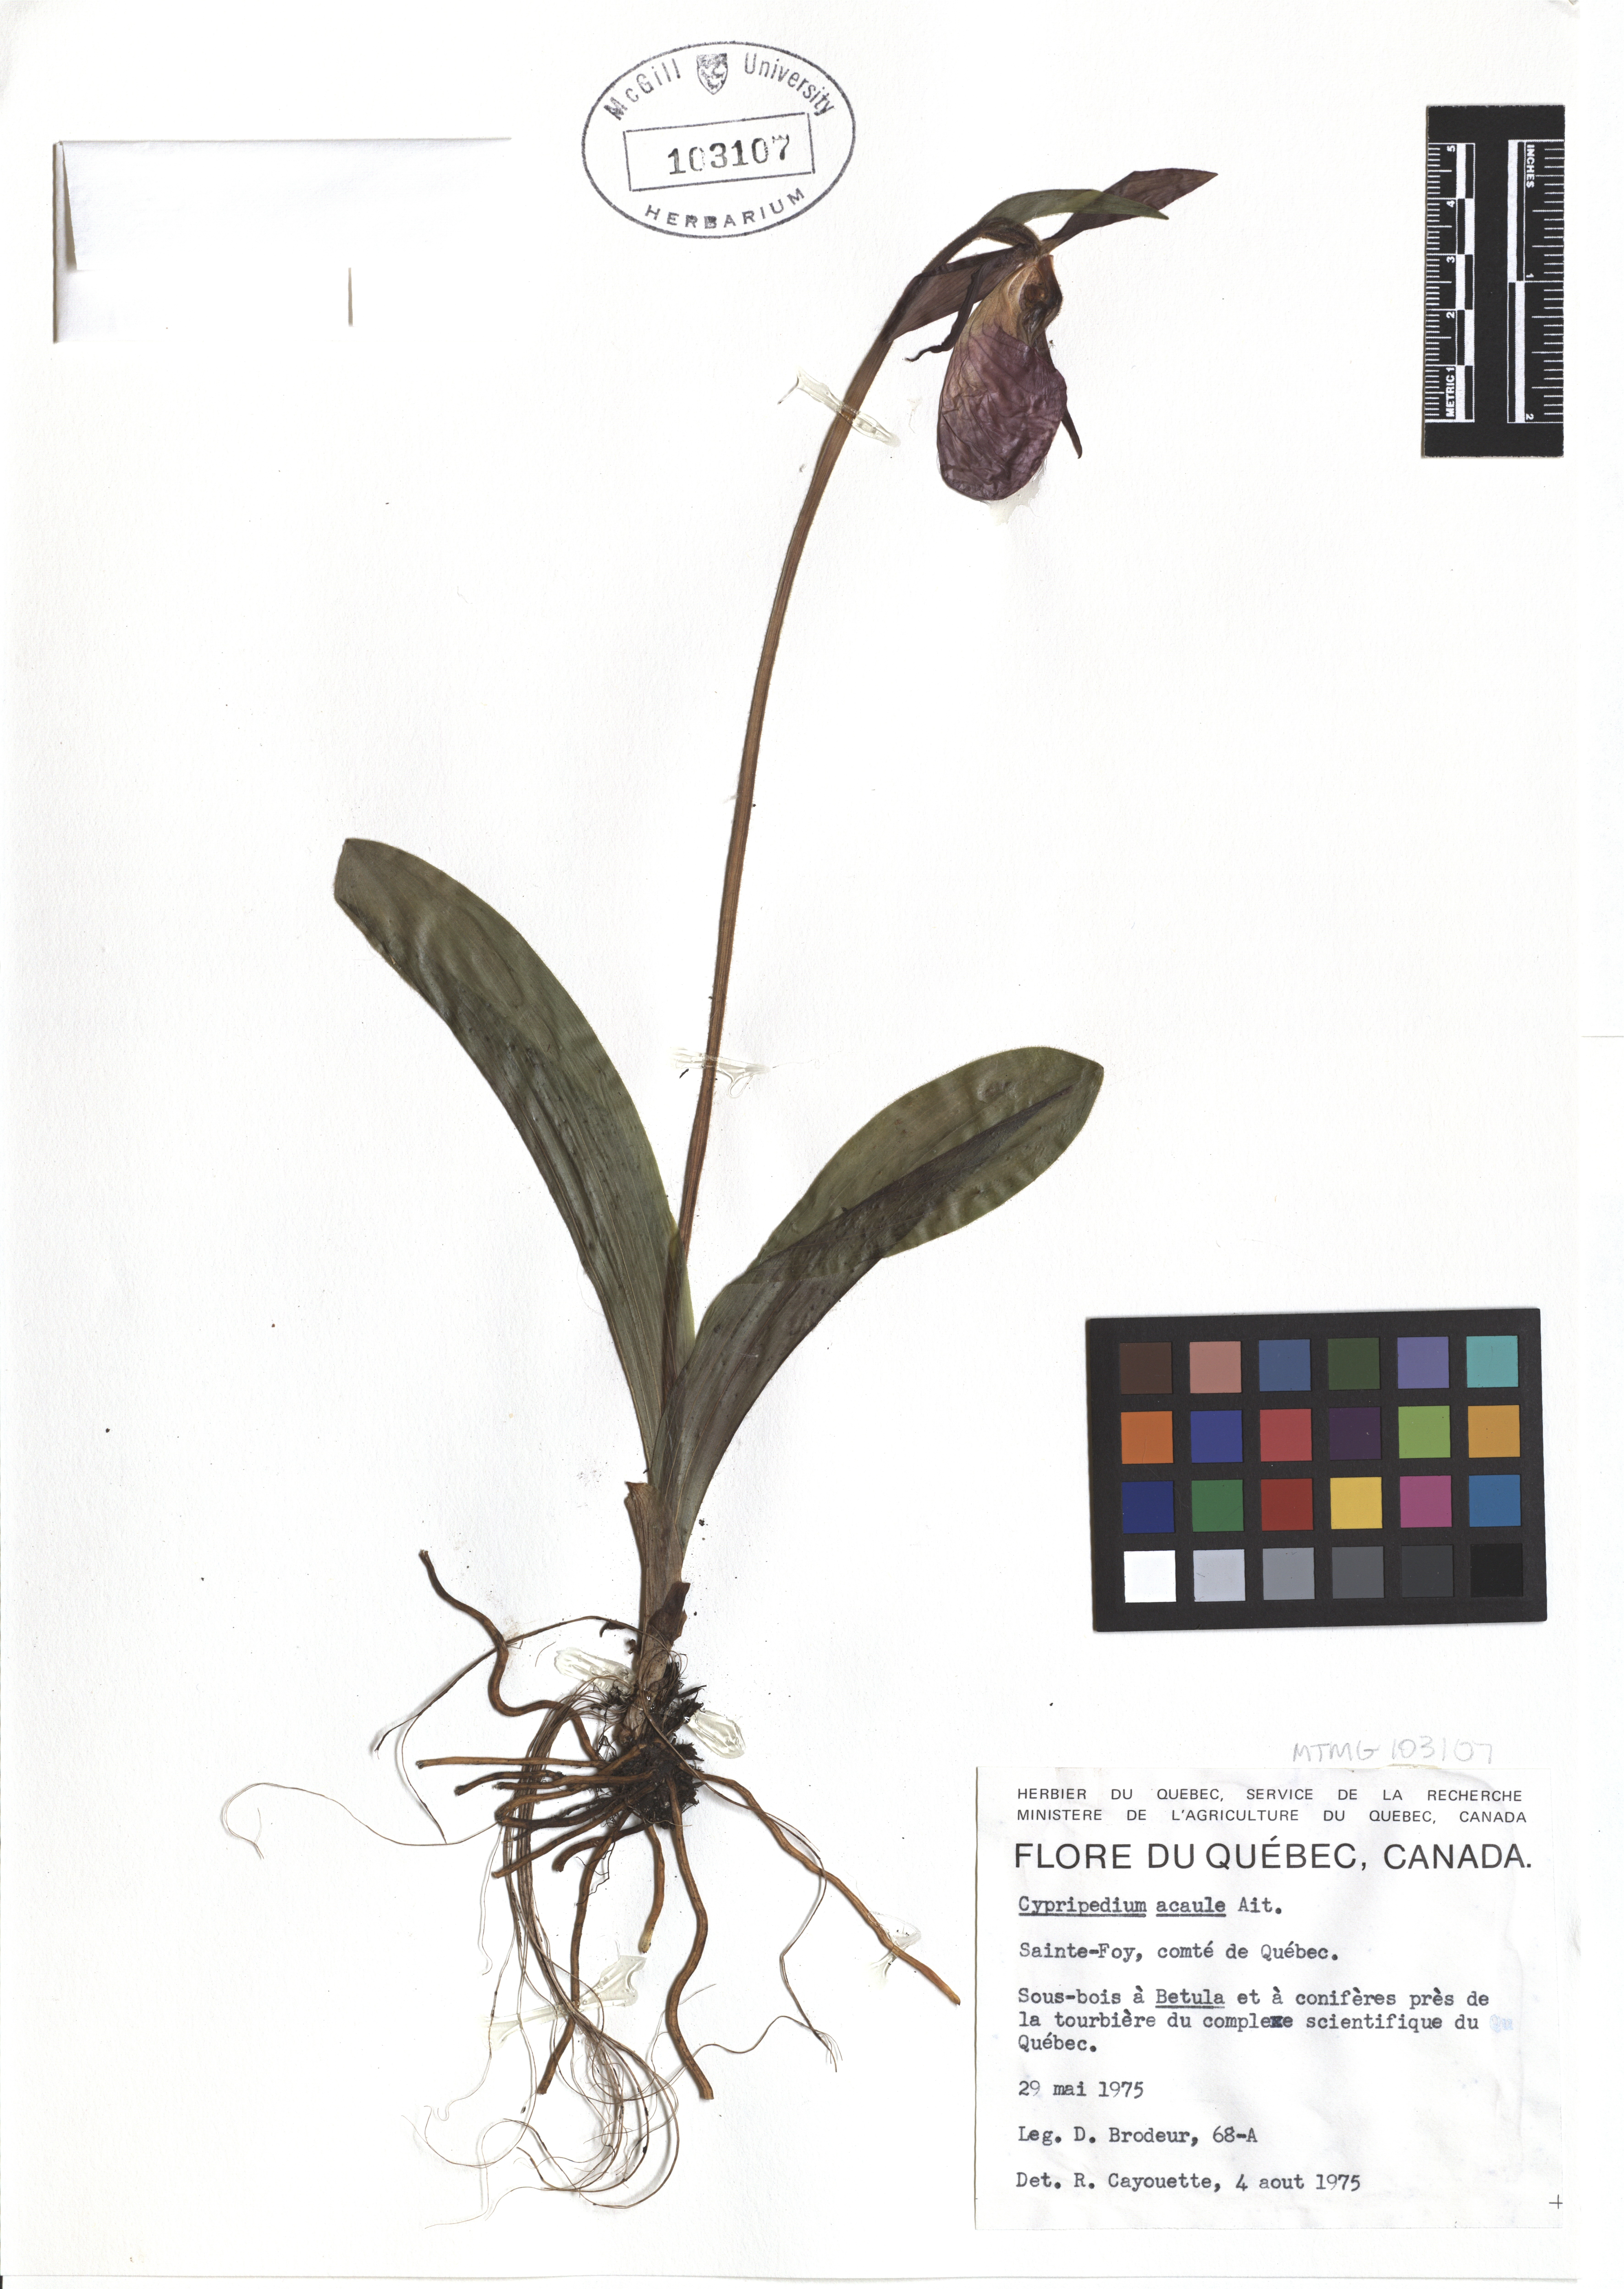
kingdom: Plantae
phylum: Tracheophyta
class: Liliopsida
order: Asparagales
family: Orchidaceae
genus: Cypripedium
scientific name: Cypripedium acaule
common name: Pink lady's-slipper
